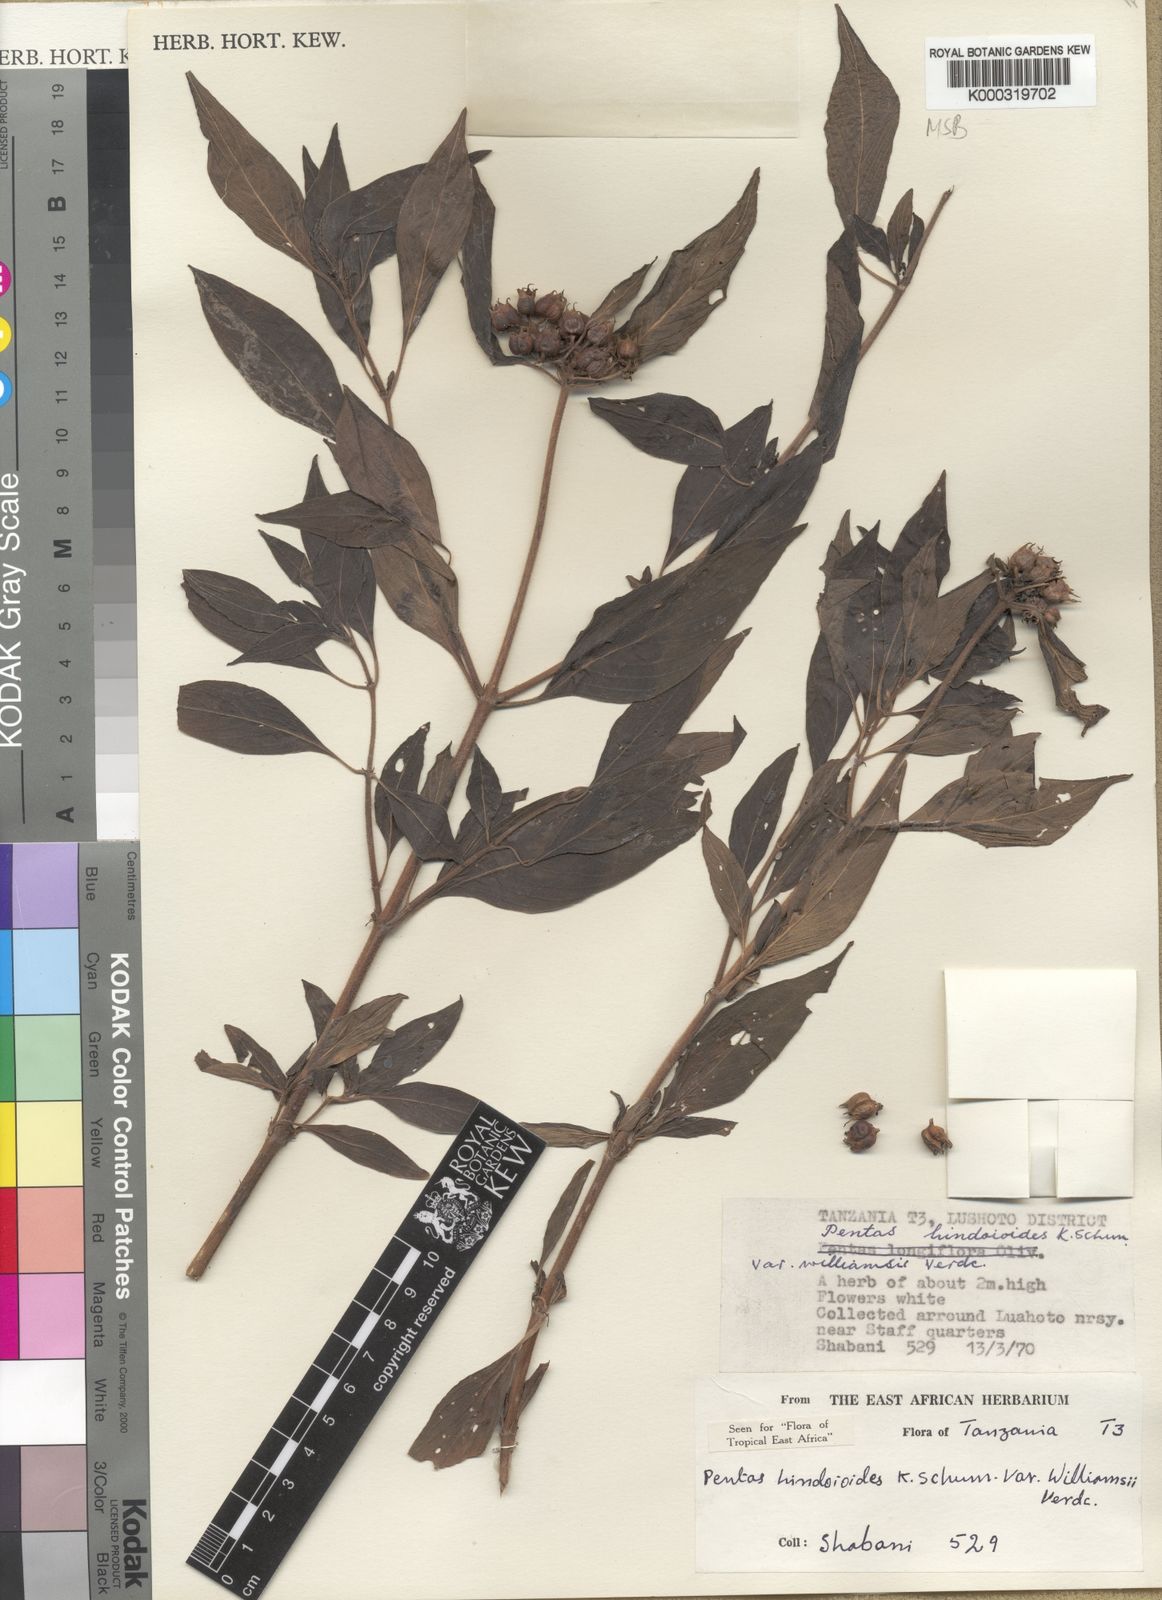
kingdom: Plantae
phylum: Tracheophyta
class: Magnoliopsida
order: Gentianales
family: Rubiaceae
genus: Chamaepentas
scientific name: Chamaepentas hindsioides
